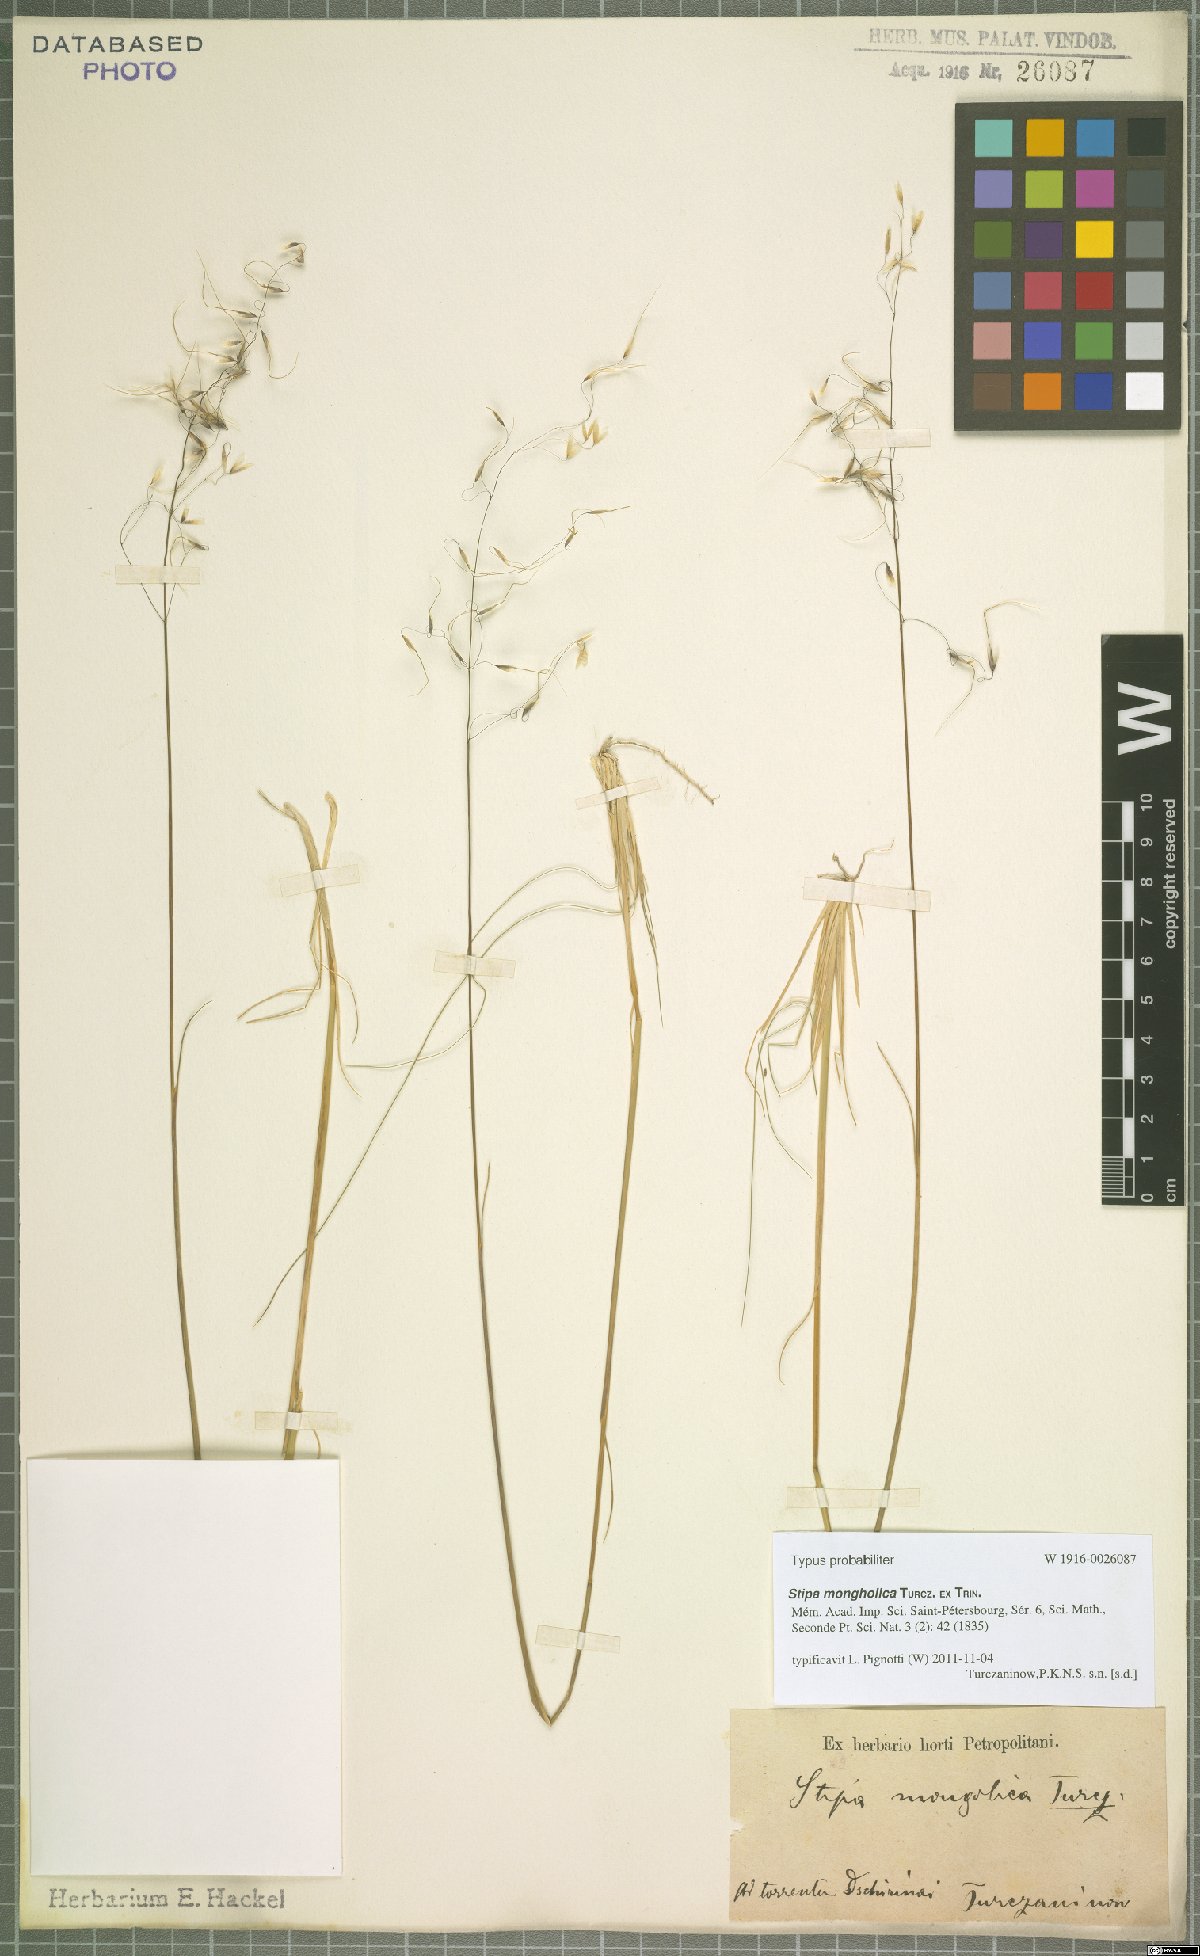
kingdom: Plantae
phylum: Tracheophyta
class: Liliopsida
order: Poales
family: Poaceae
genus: Ptilagrostis
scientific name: Ptilagrostis mongholica
